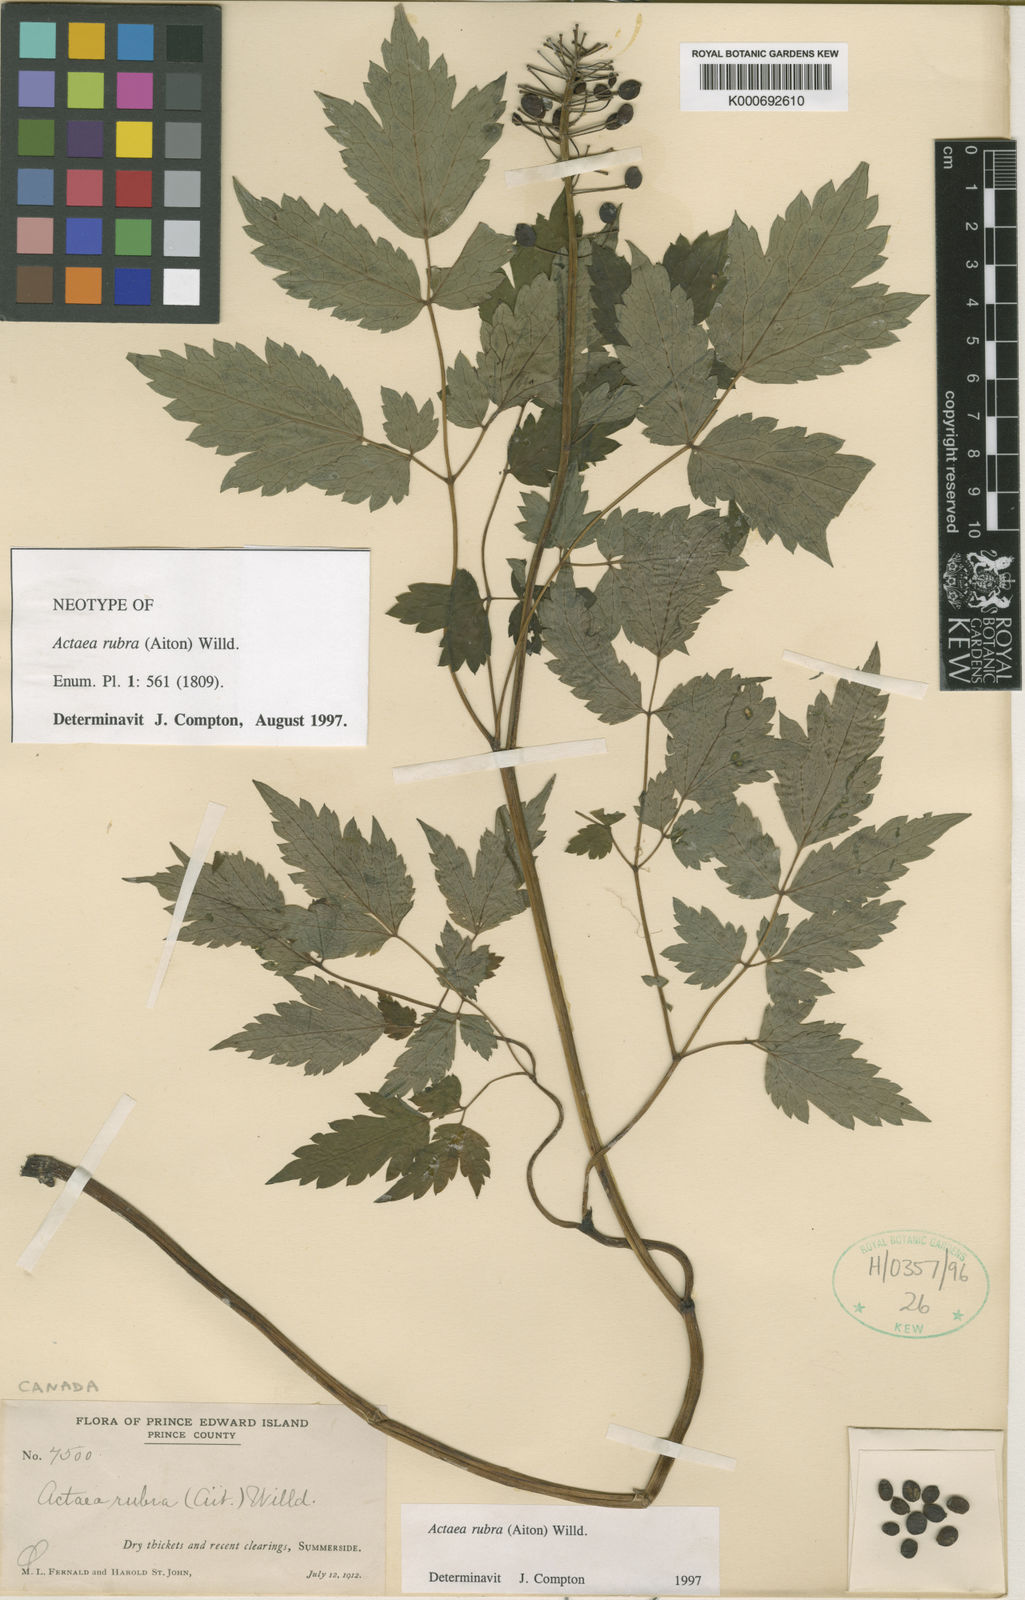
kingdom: Plantae
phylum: Tracheophyta
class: Magnoliopsida
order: Ranunculales
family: Ranunculaceae
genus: Actaea
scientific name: Actaea rubra
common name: Red baneberry
